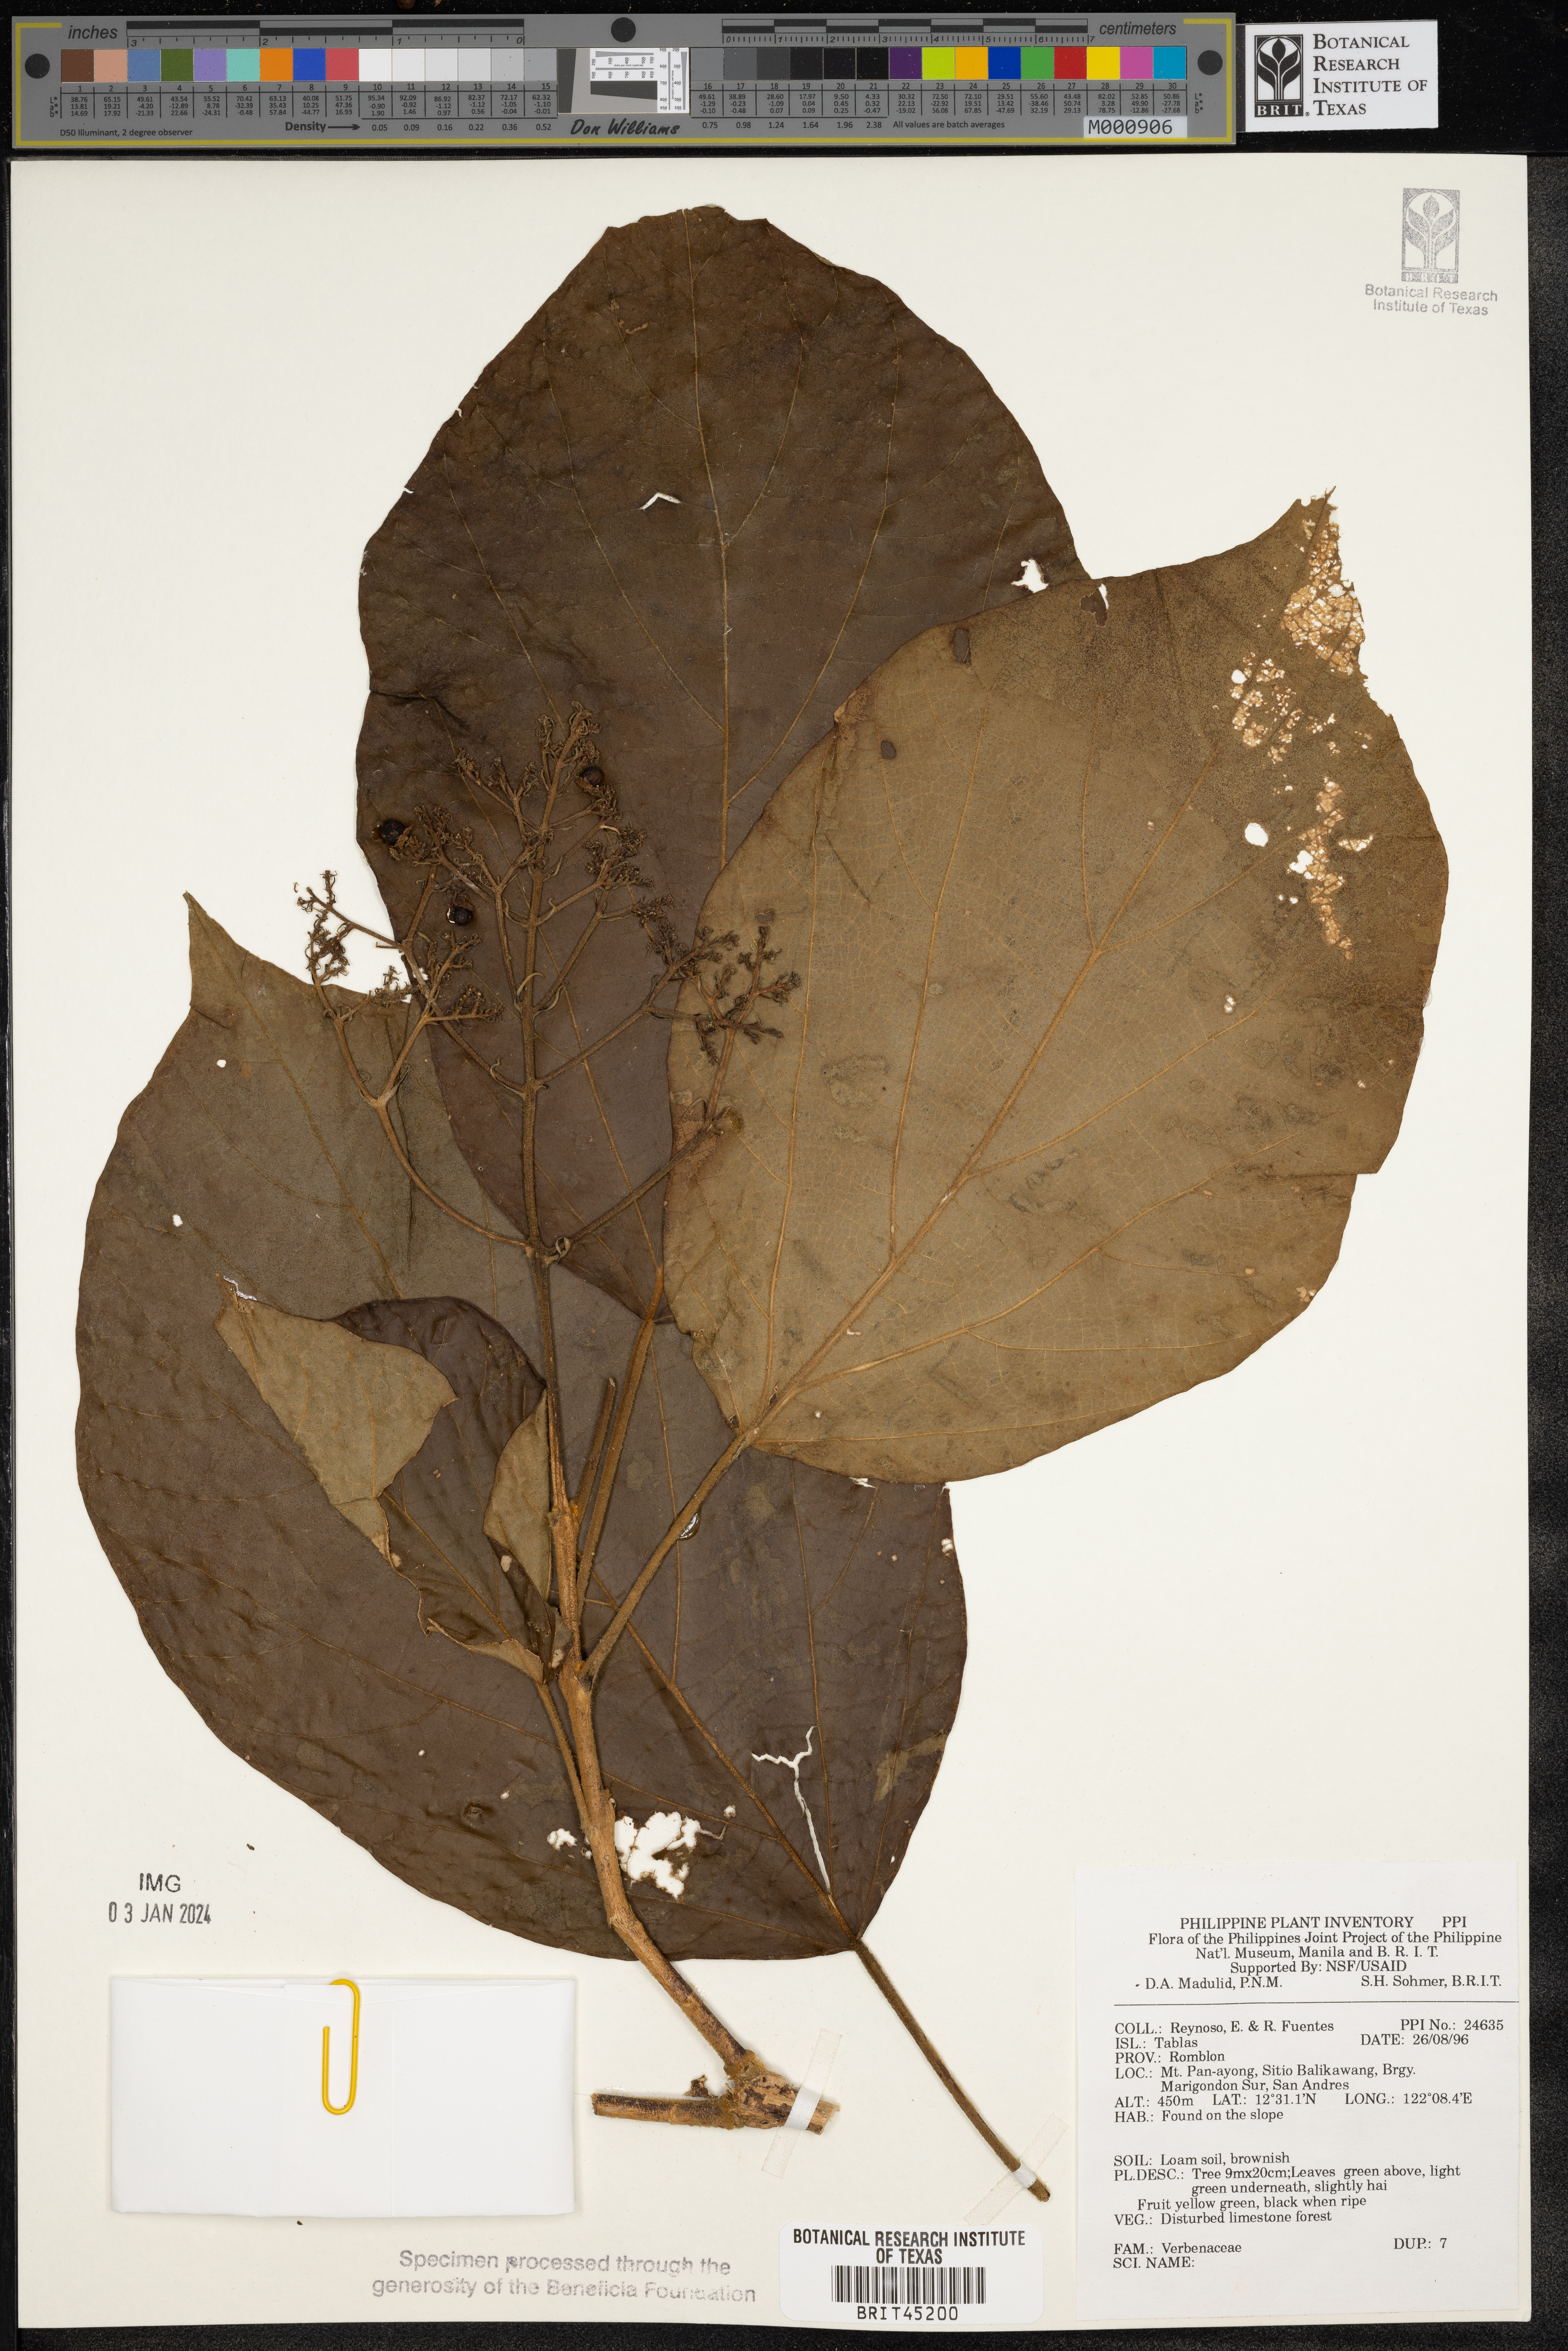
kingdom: Plantae
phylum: Tracheophyta
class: Magnoliopsida
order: Lamiales
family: Verbenaceae
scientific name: Verbenaceae
